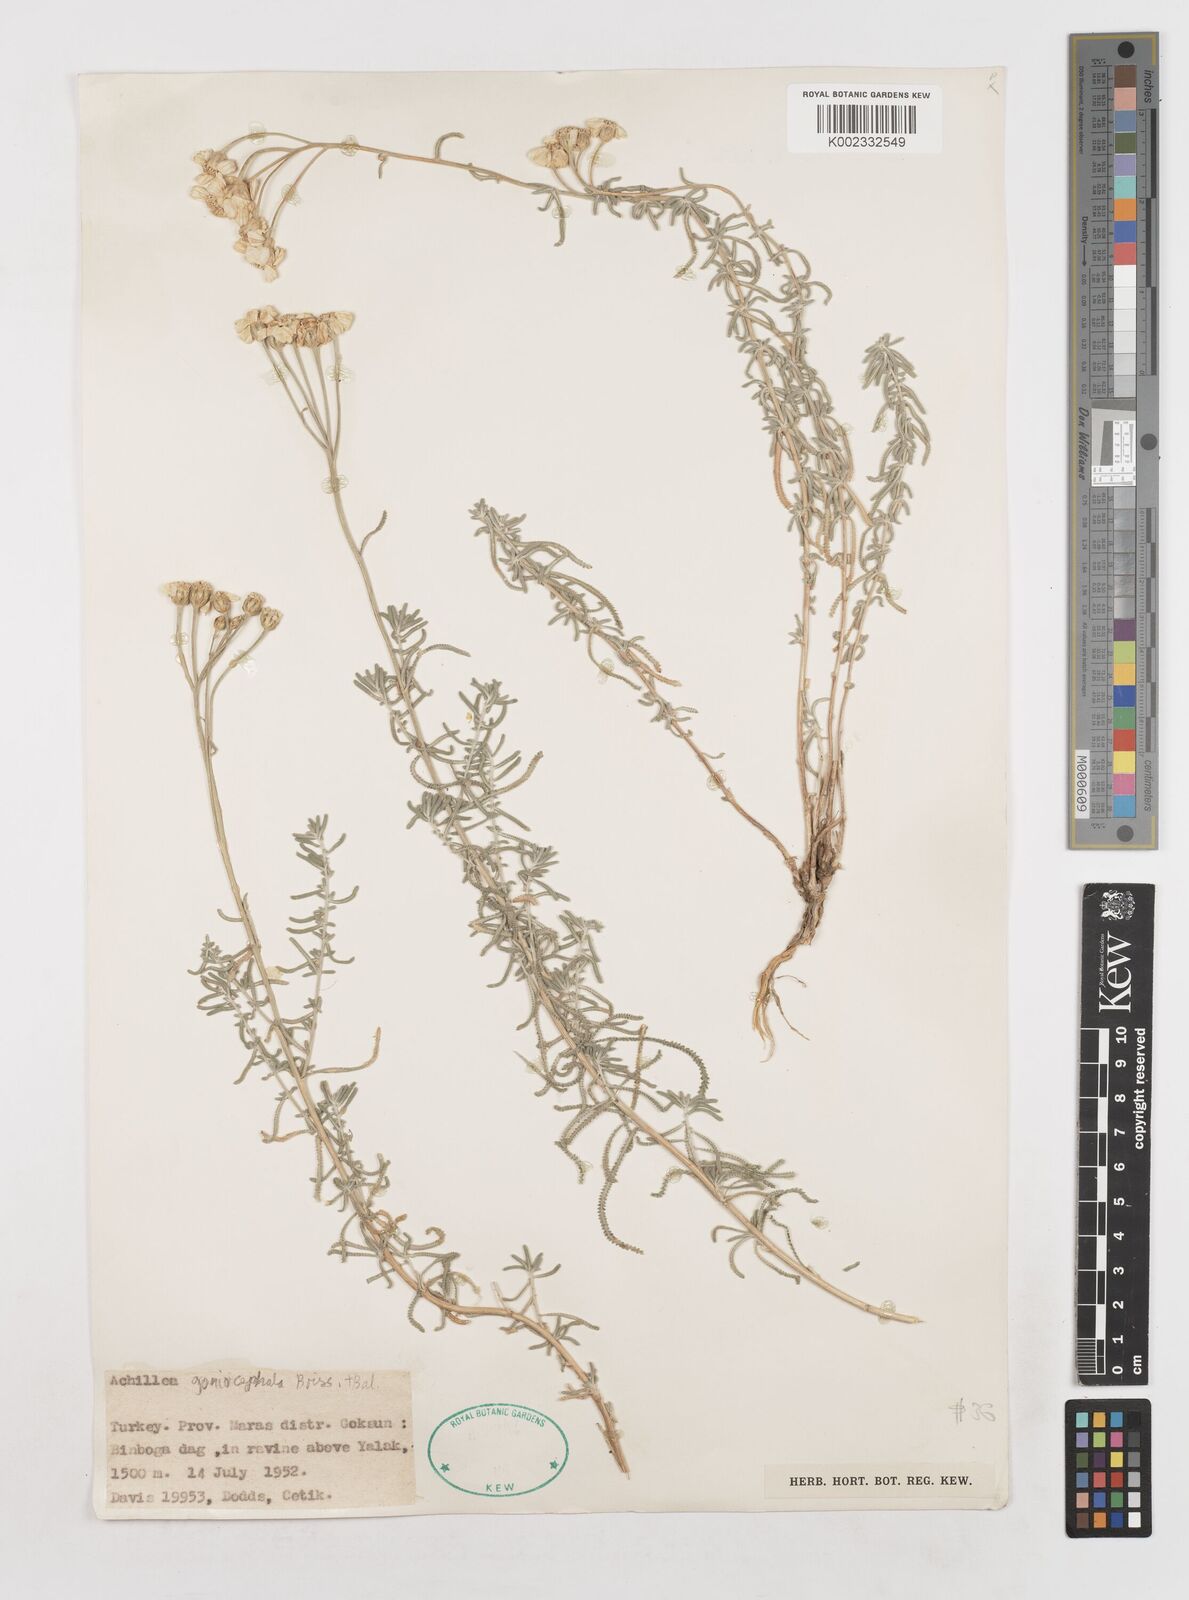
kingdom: Plantae
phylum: Tracheophyta
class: Magnoliopsida
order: Asterales
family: Asteraceae
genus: Achillea
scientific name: Achillea goniocephala
